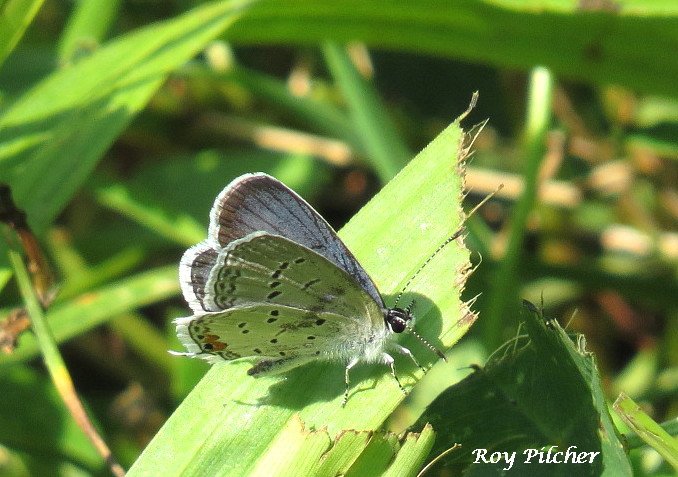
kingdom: Animalia
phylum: Arthropoda
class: Insecta
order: Lepidoptera
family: Lycaenidae
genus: Elkalyce
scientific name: Elkalyce comyntas
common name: Eastern Tailed-Blue
